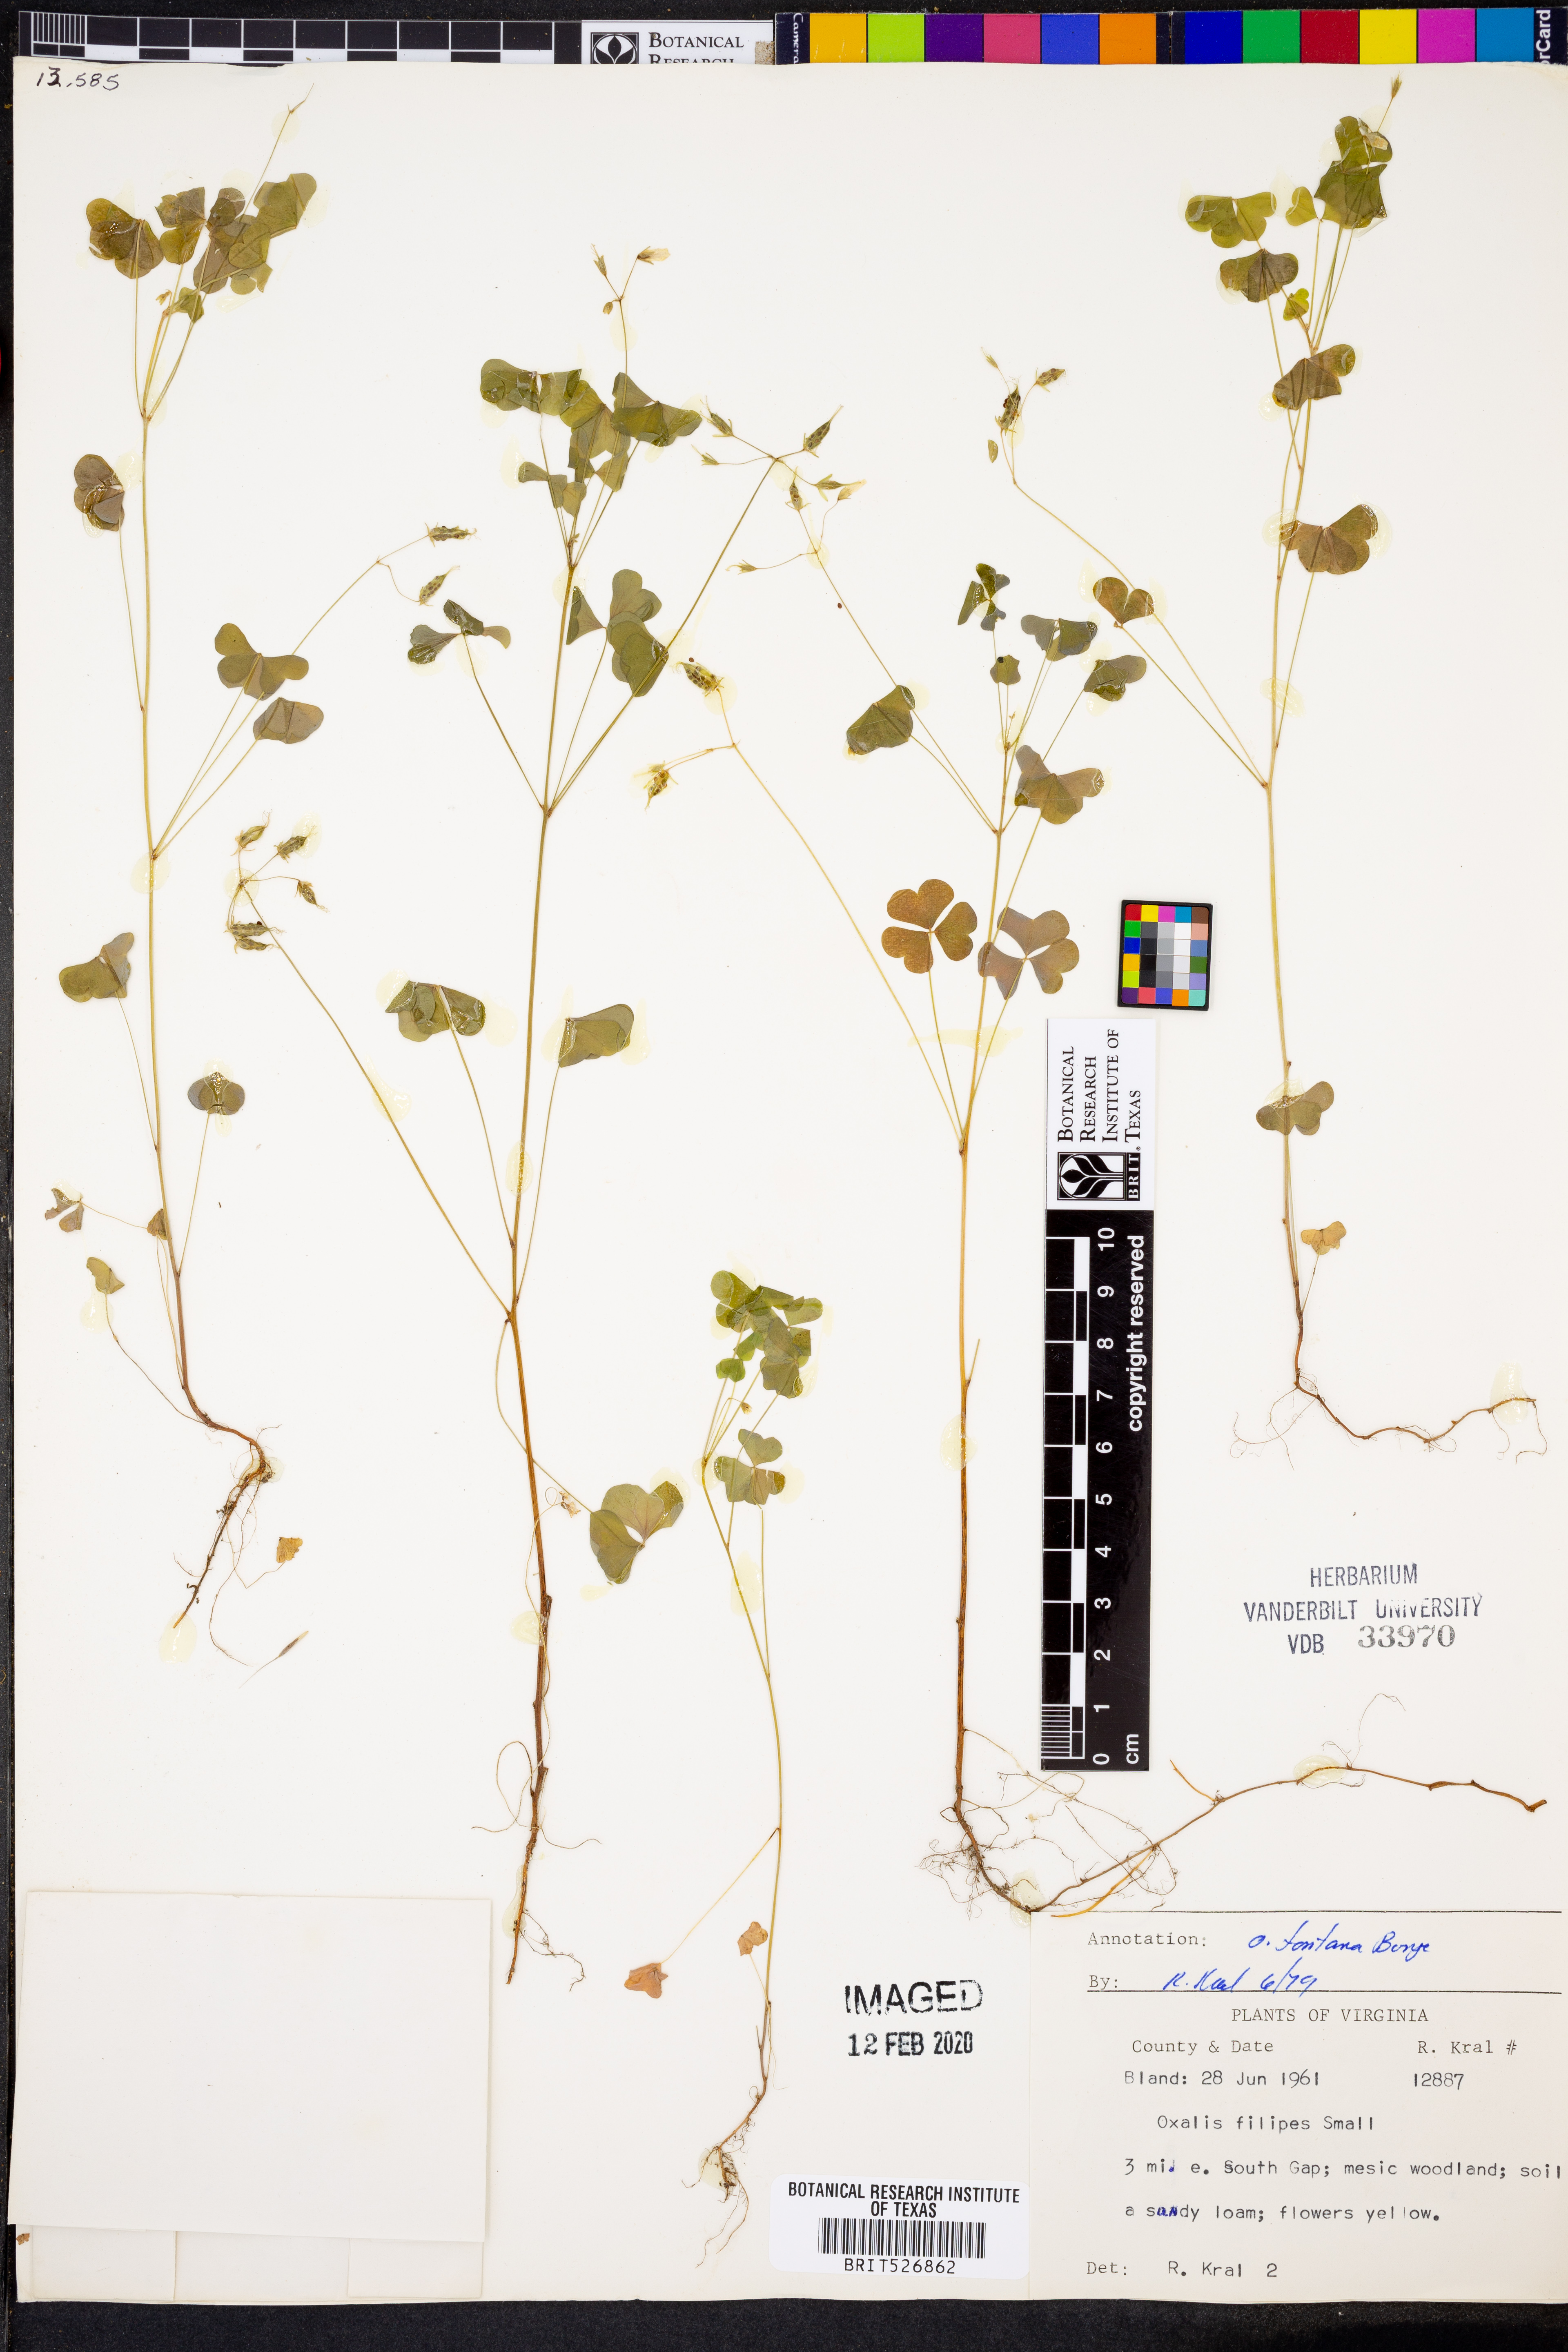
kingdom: Plantae
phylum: Tracheophyta
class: Magnoliopsida
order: Oxalidales
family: Oxalidaceae
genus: Oxalis
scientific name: Oxalis stricta
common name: Upright yellow-sorrel
